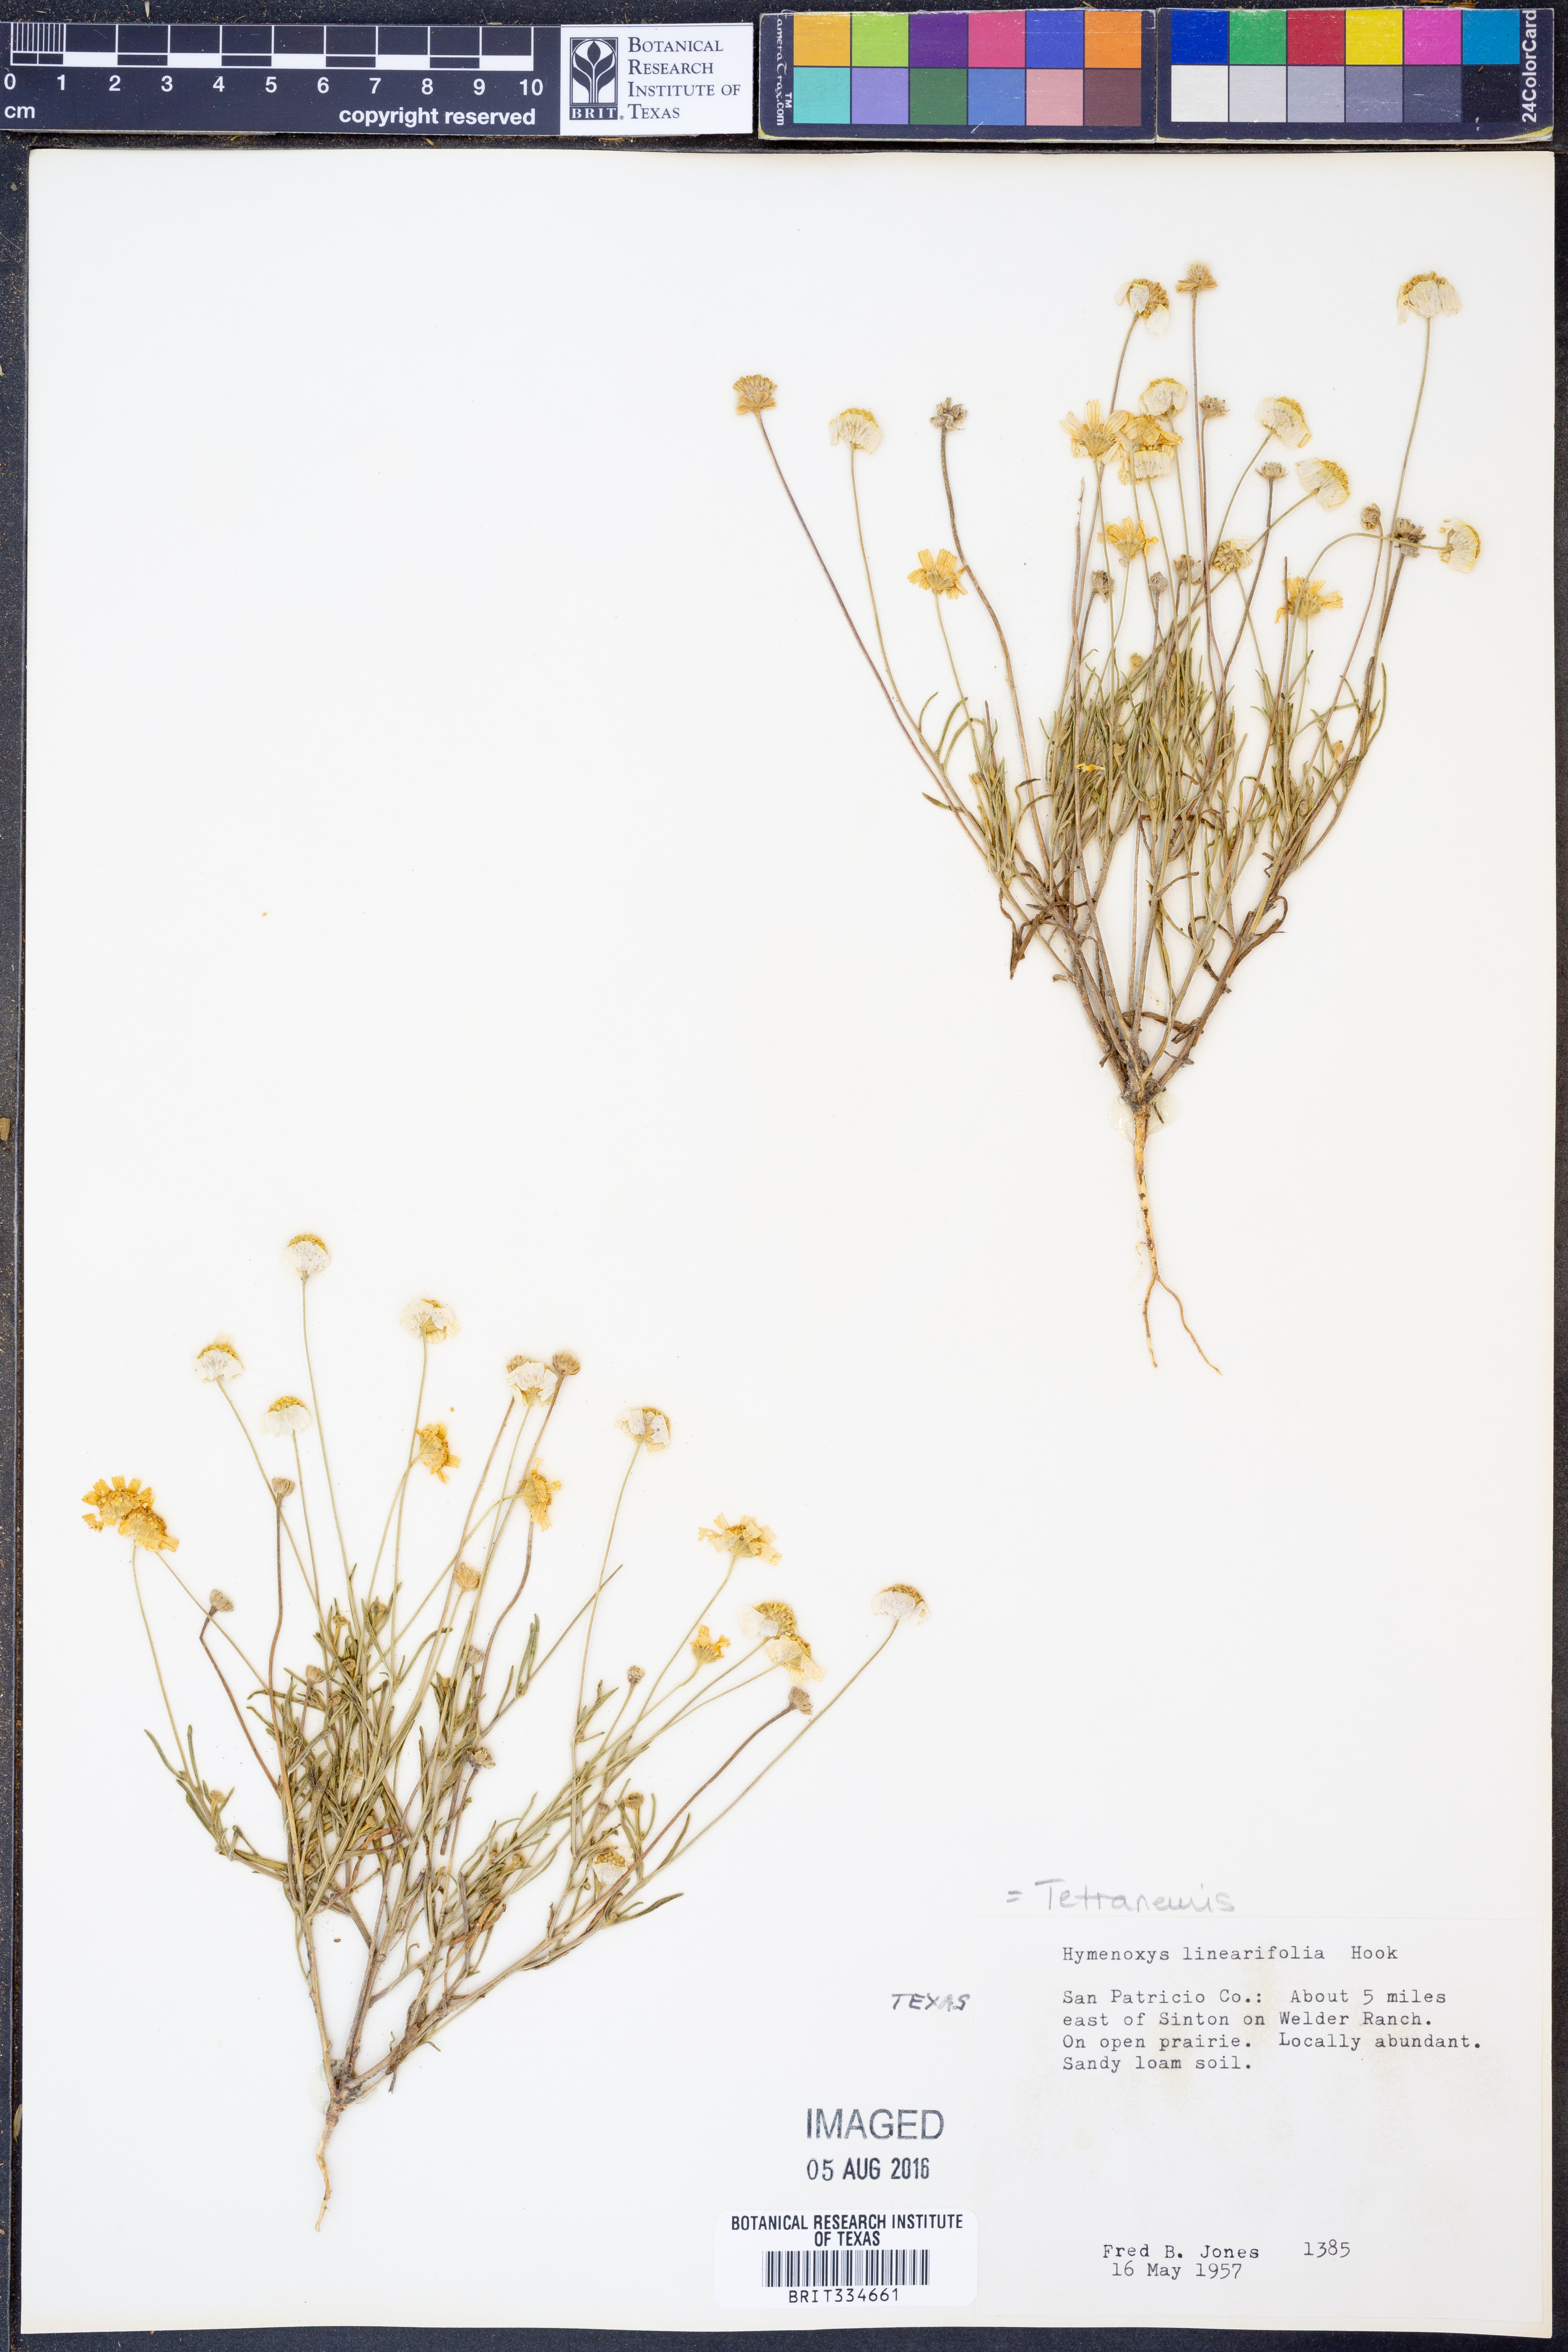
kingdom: Plantae
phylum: Tracheophyta
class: Magnoliopsida
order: Asterales
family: Asteraceae
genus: Tetraneuris
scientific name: Tetraneuris linearifolia
